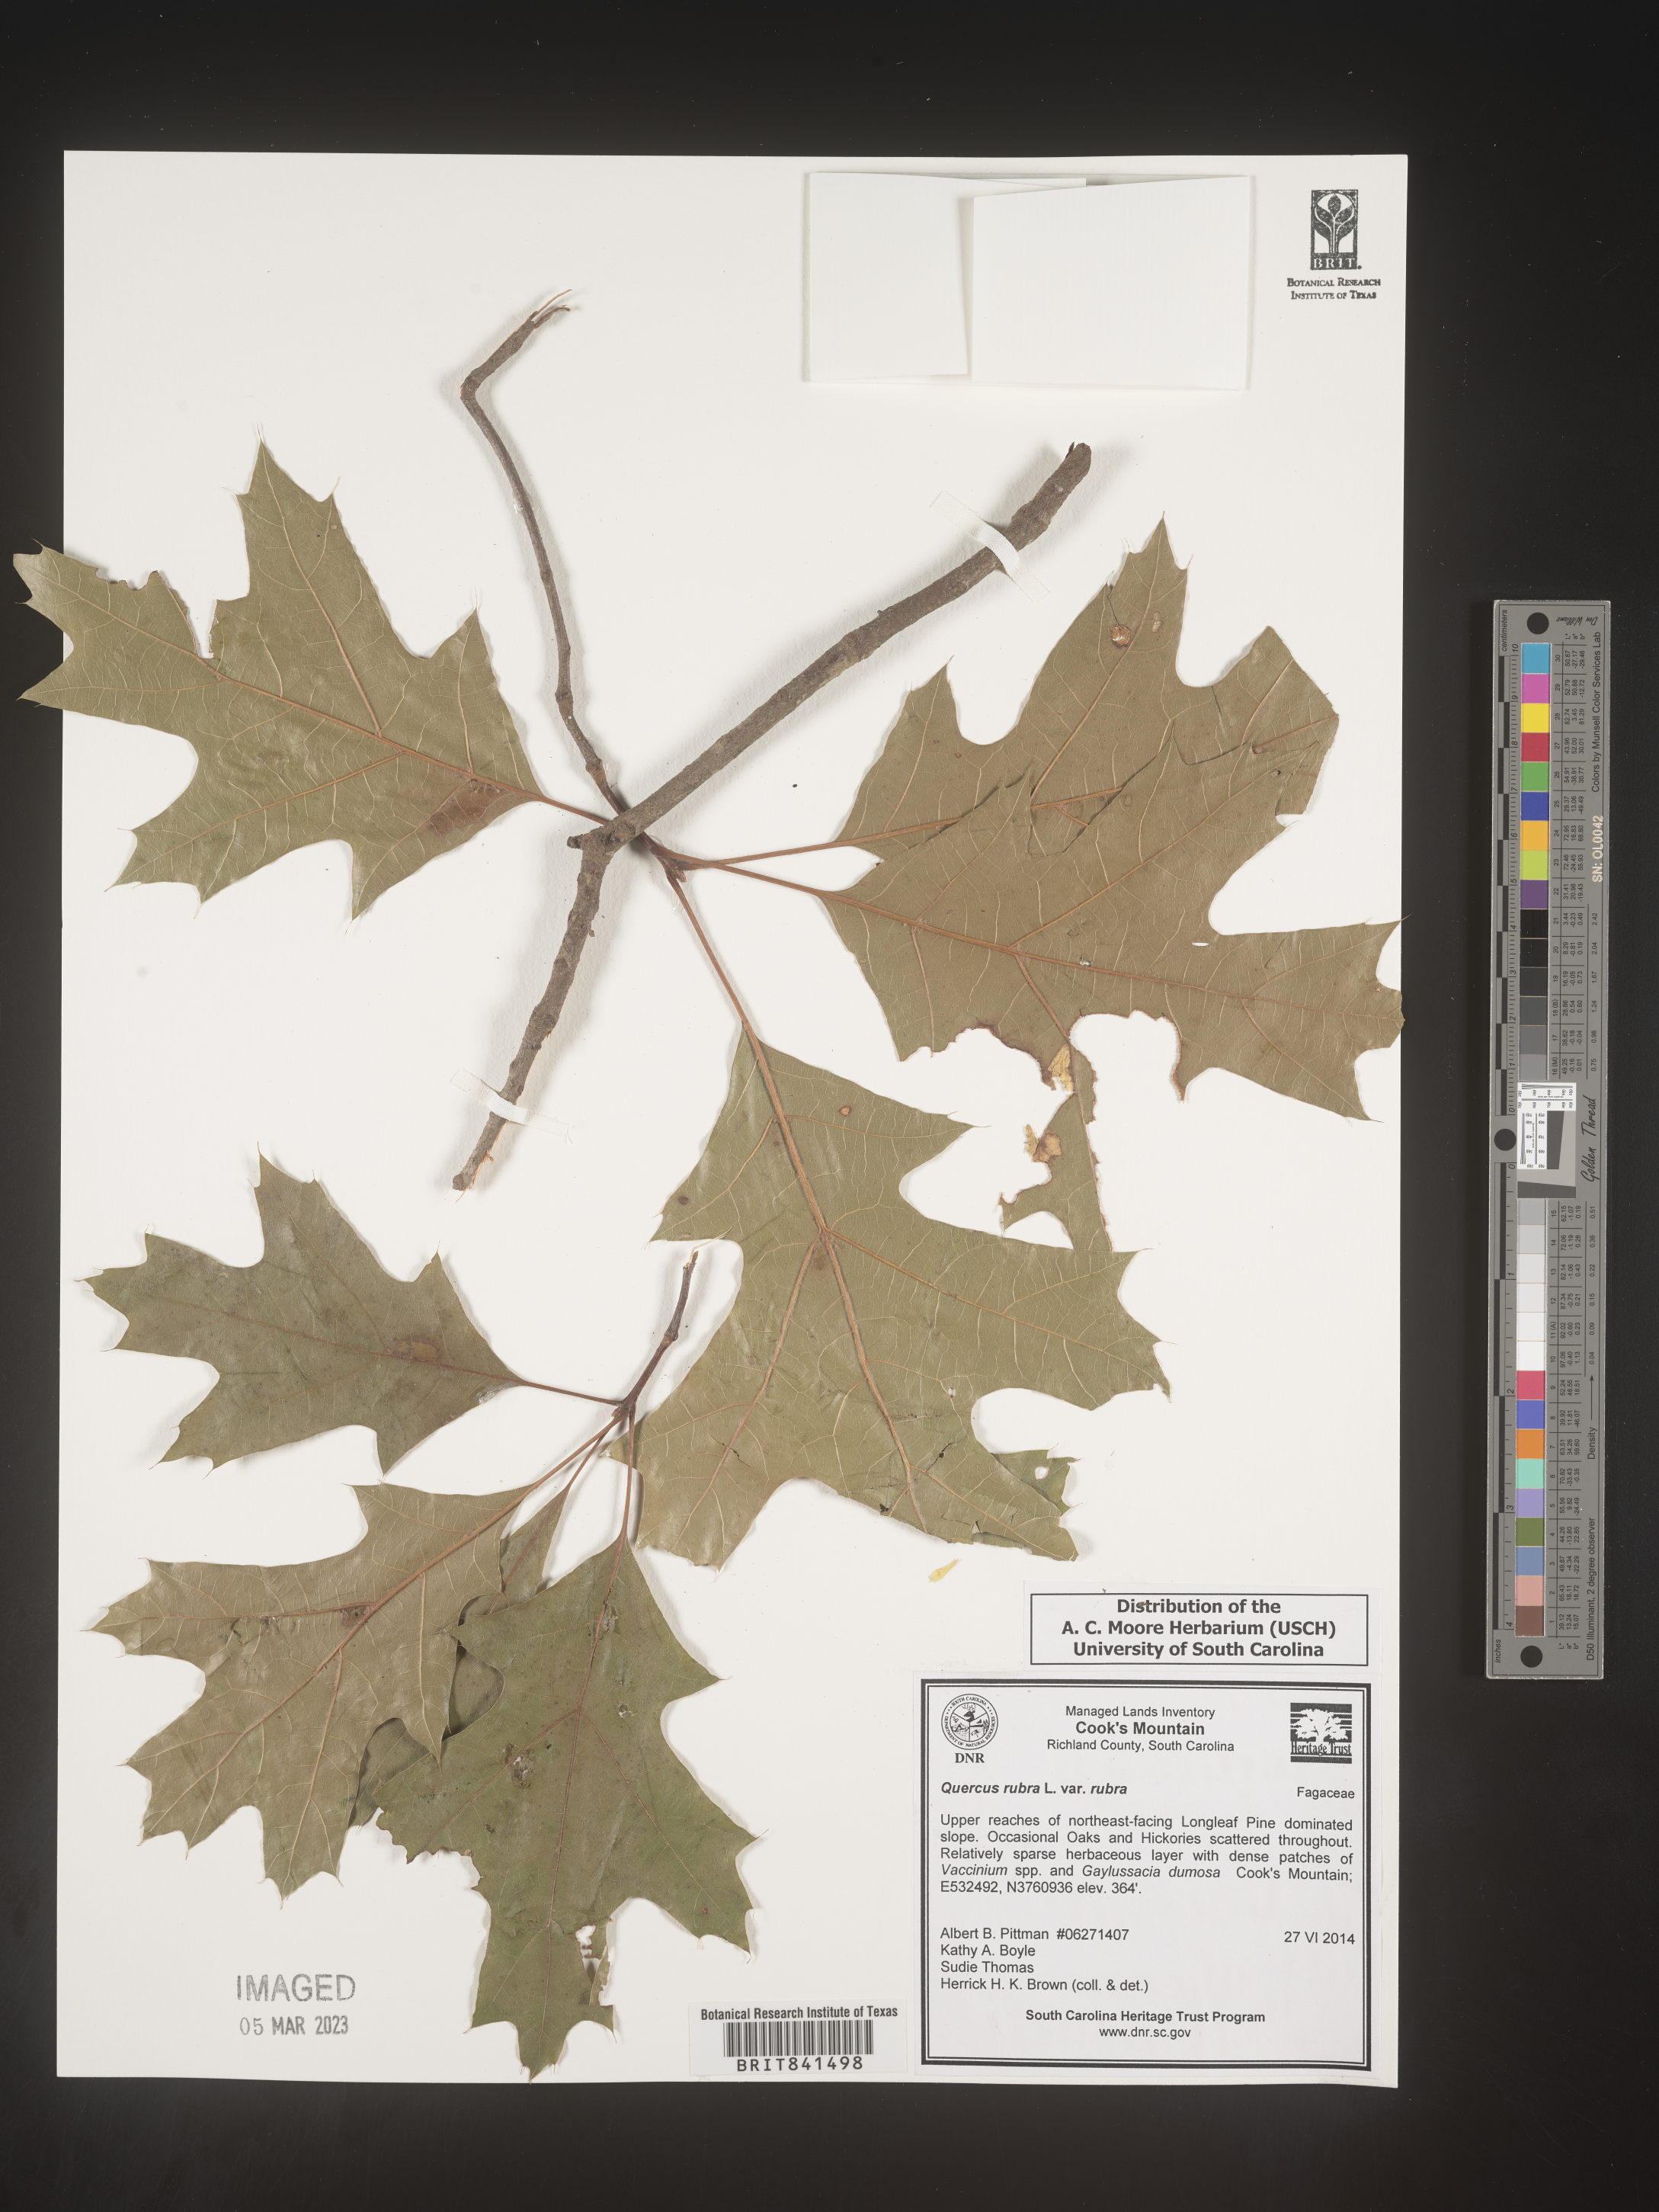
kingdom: Plantae
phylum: Tracheophyta
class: Magnoliopsida
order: Fagales
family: Fagaceae
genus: Quercus
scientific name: Quercus rubra
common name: Red oak
